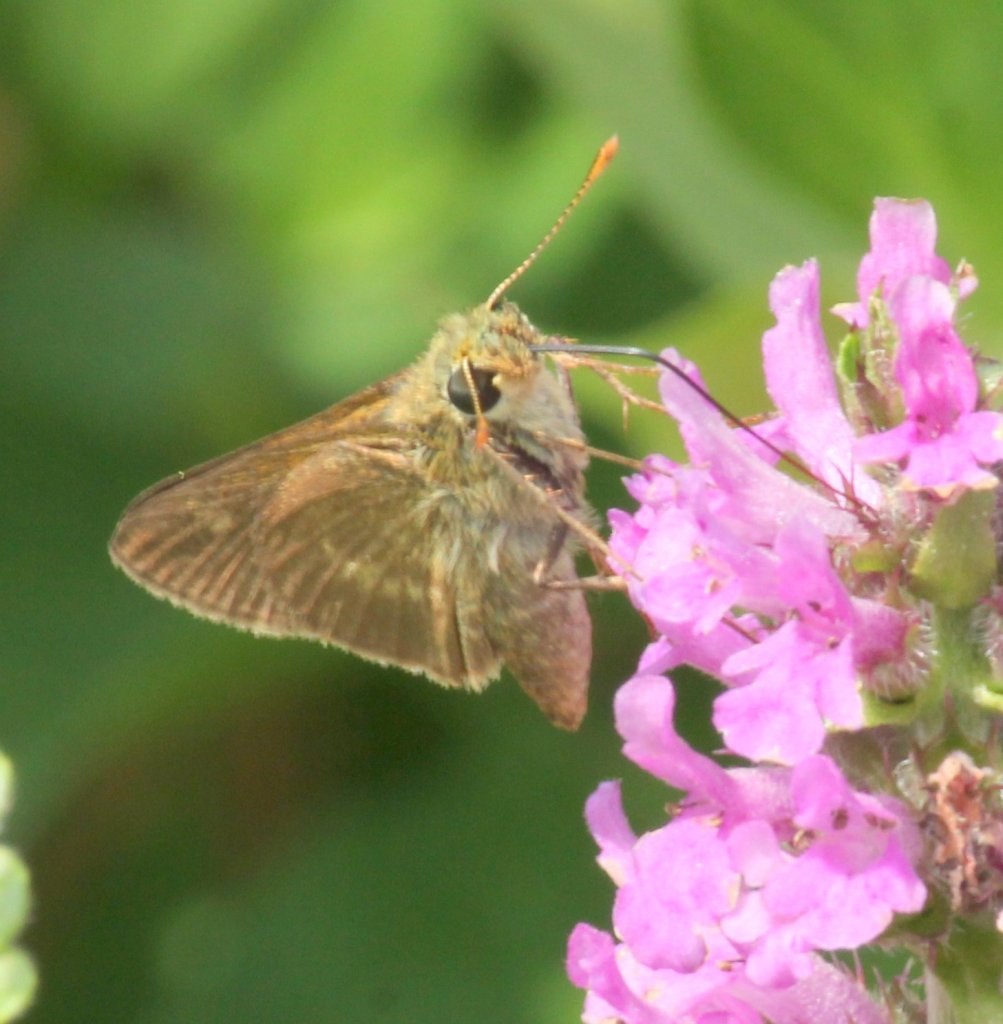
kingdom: Animalia
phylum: Arthropoda
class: Insecta
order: Lepidoptera
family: Hesperiidae
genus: Polites
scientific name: Polites themistocles
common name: Tawny-edged Skipper
